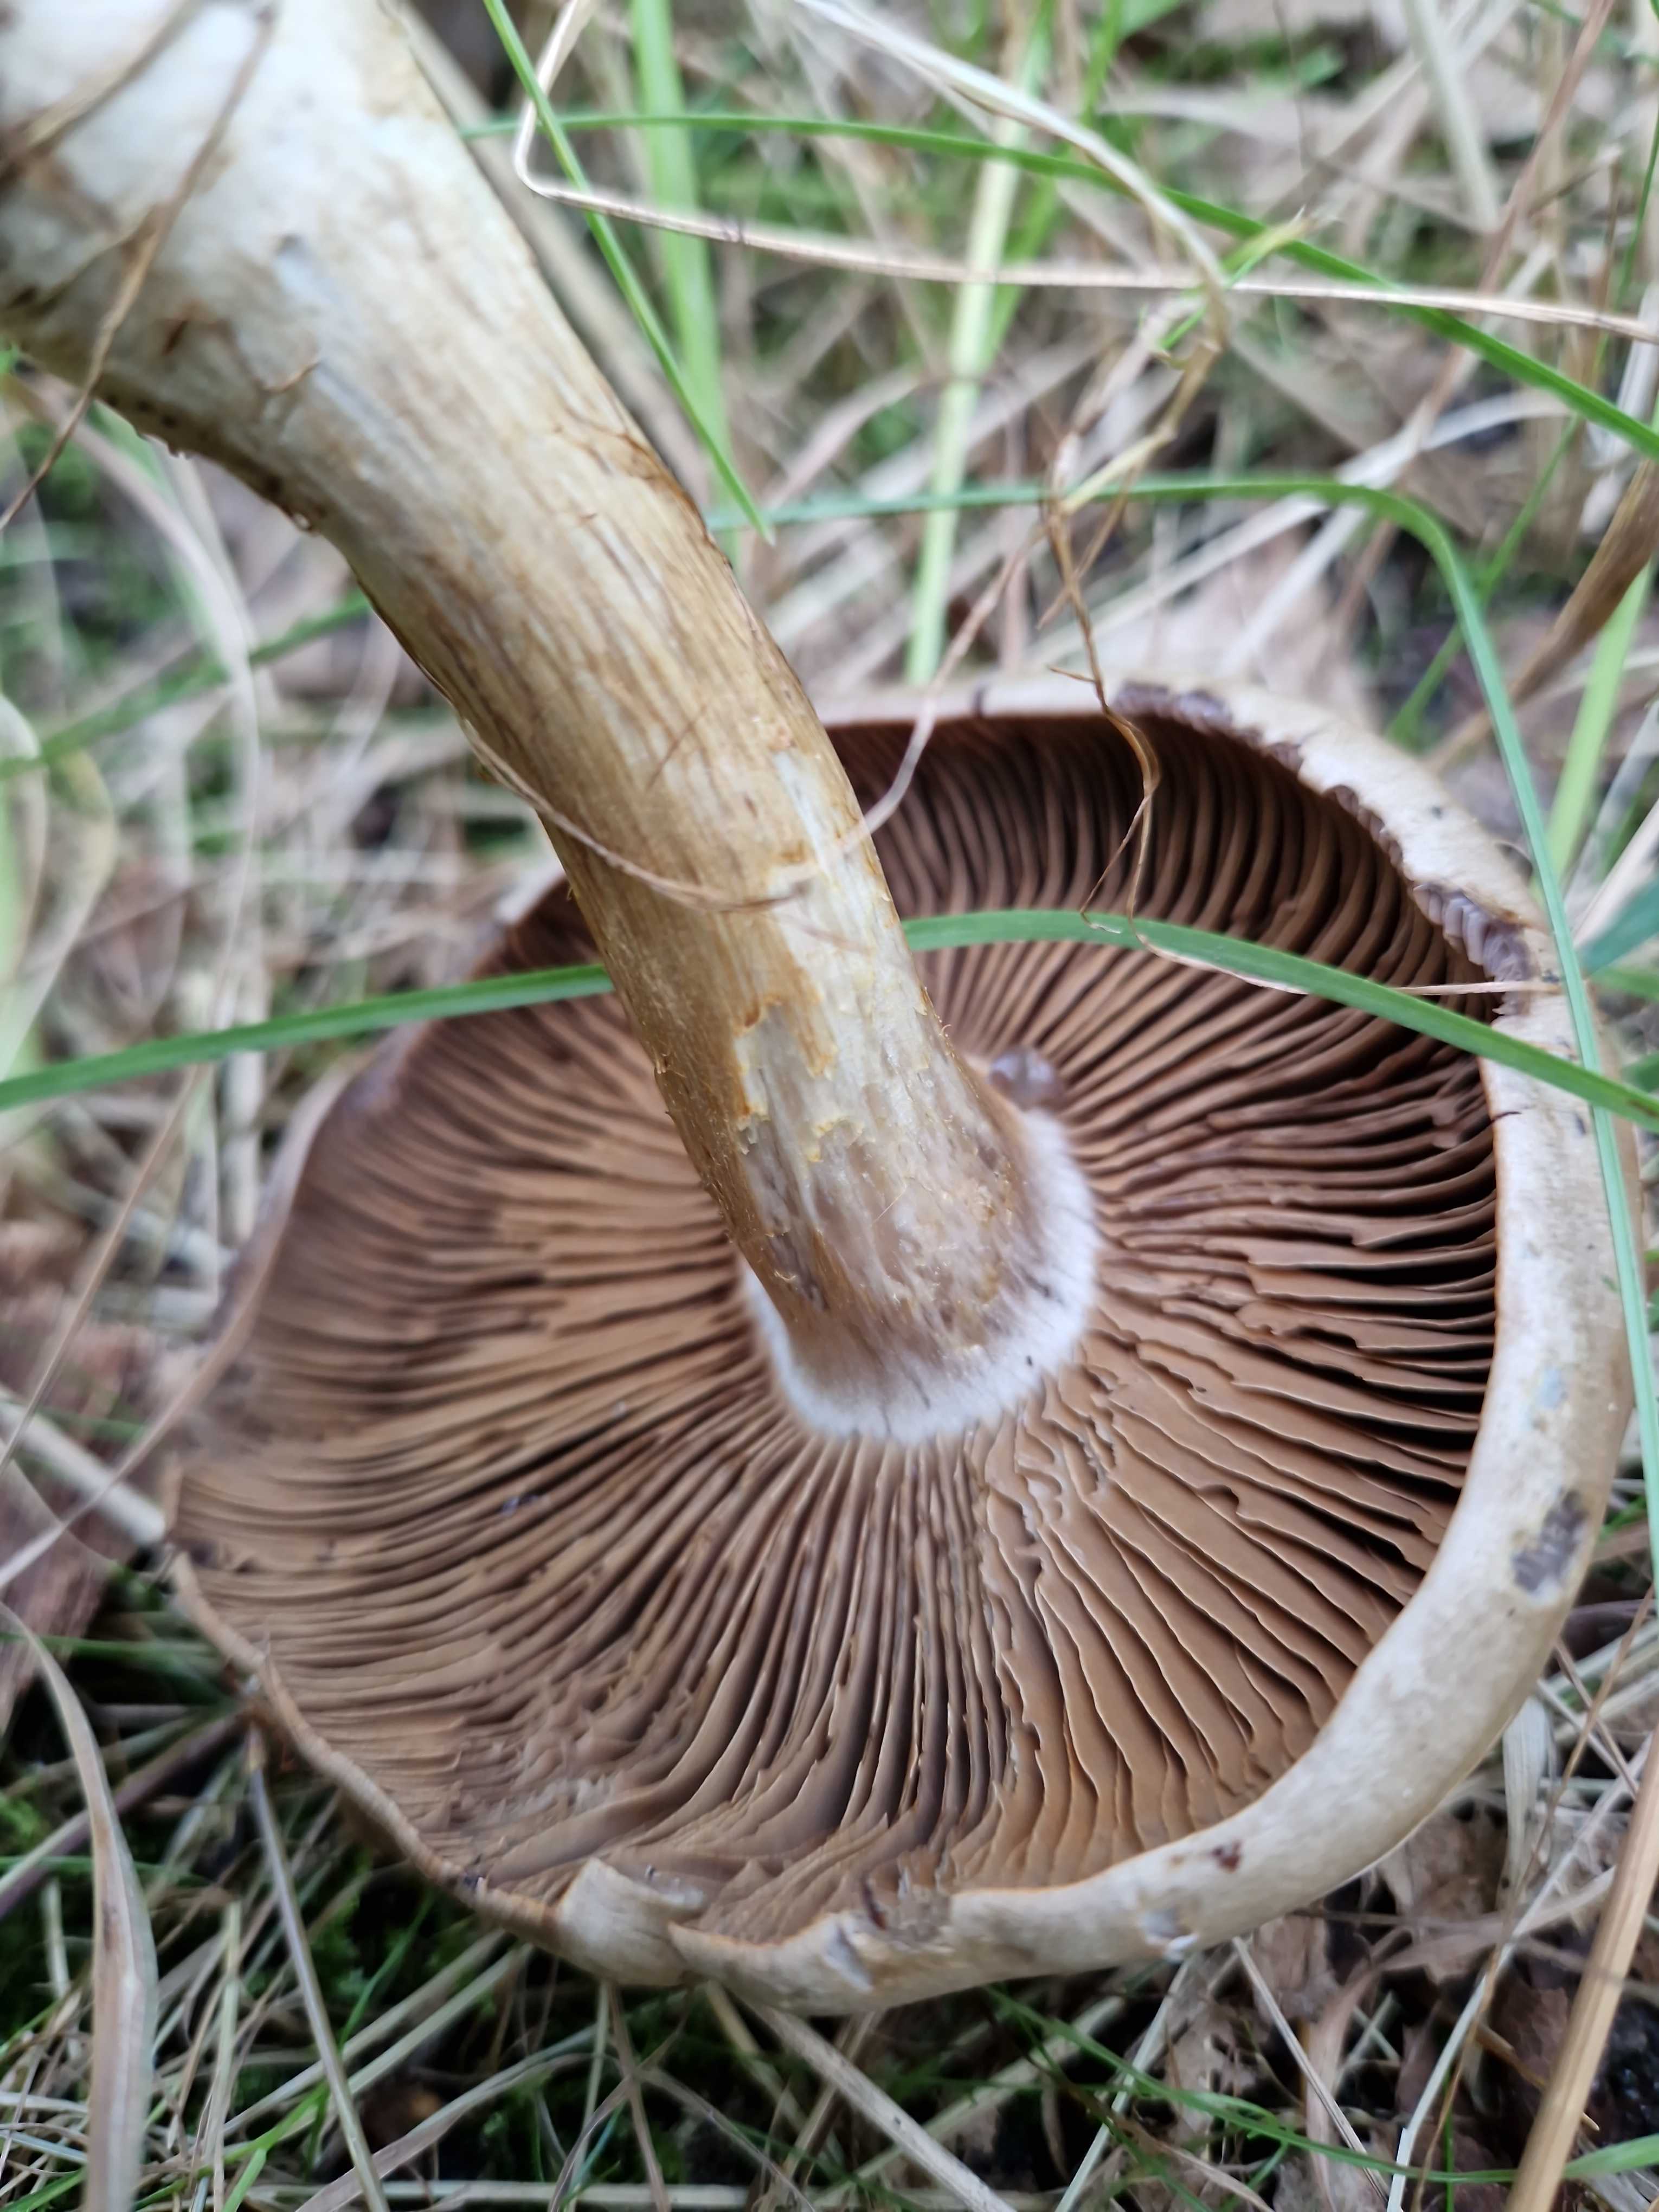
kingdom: Fungi
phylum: Basidiomycota
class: Agaricomycetes
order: Agaricales
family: Cortinariaceae
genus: Cortinarius
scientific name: Cortinarius
